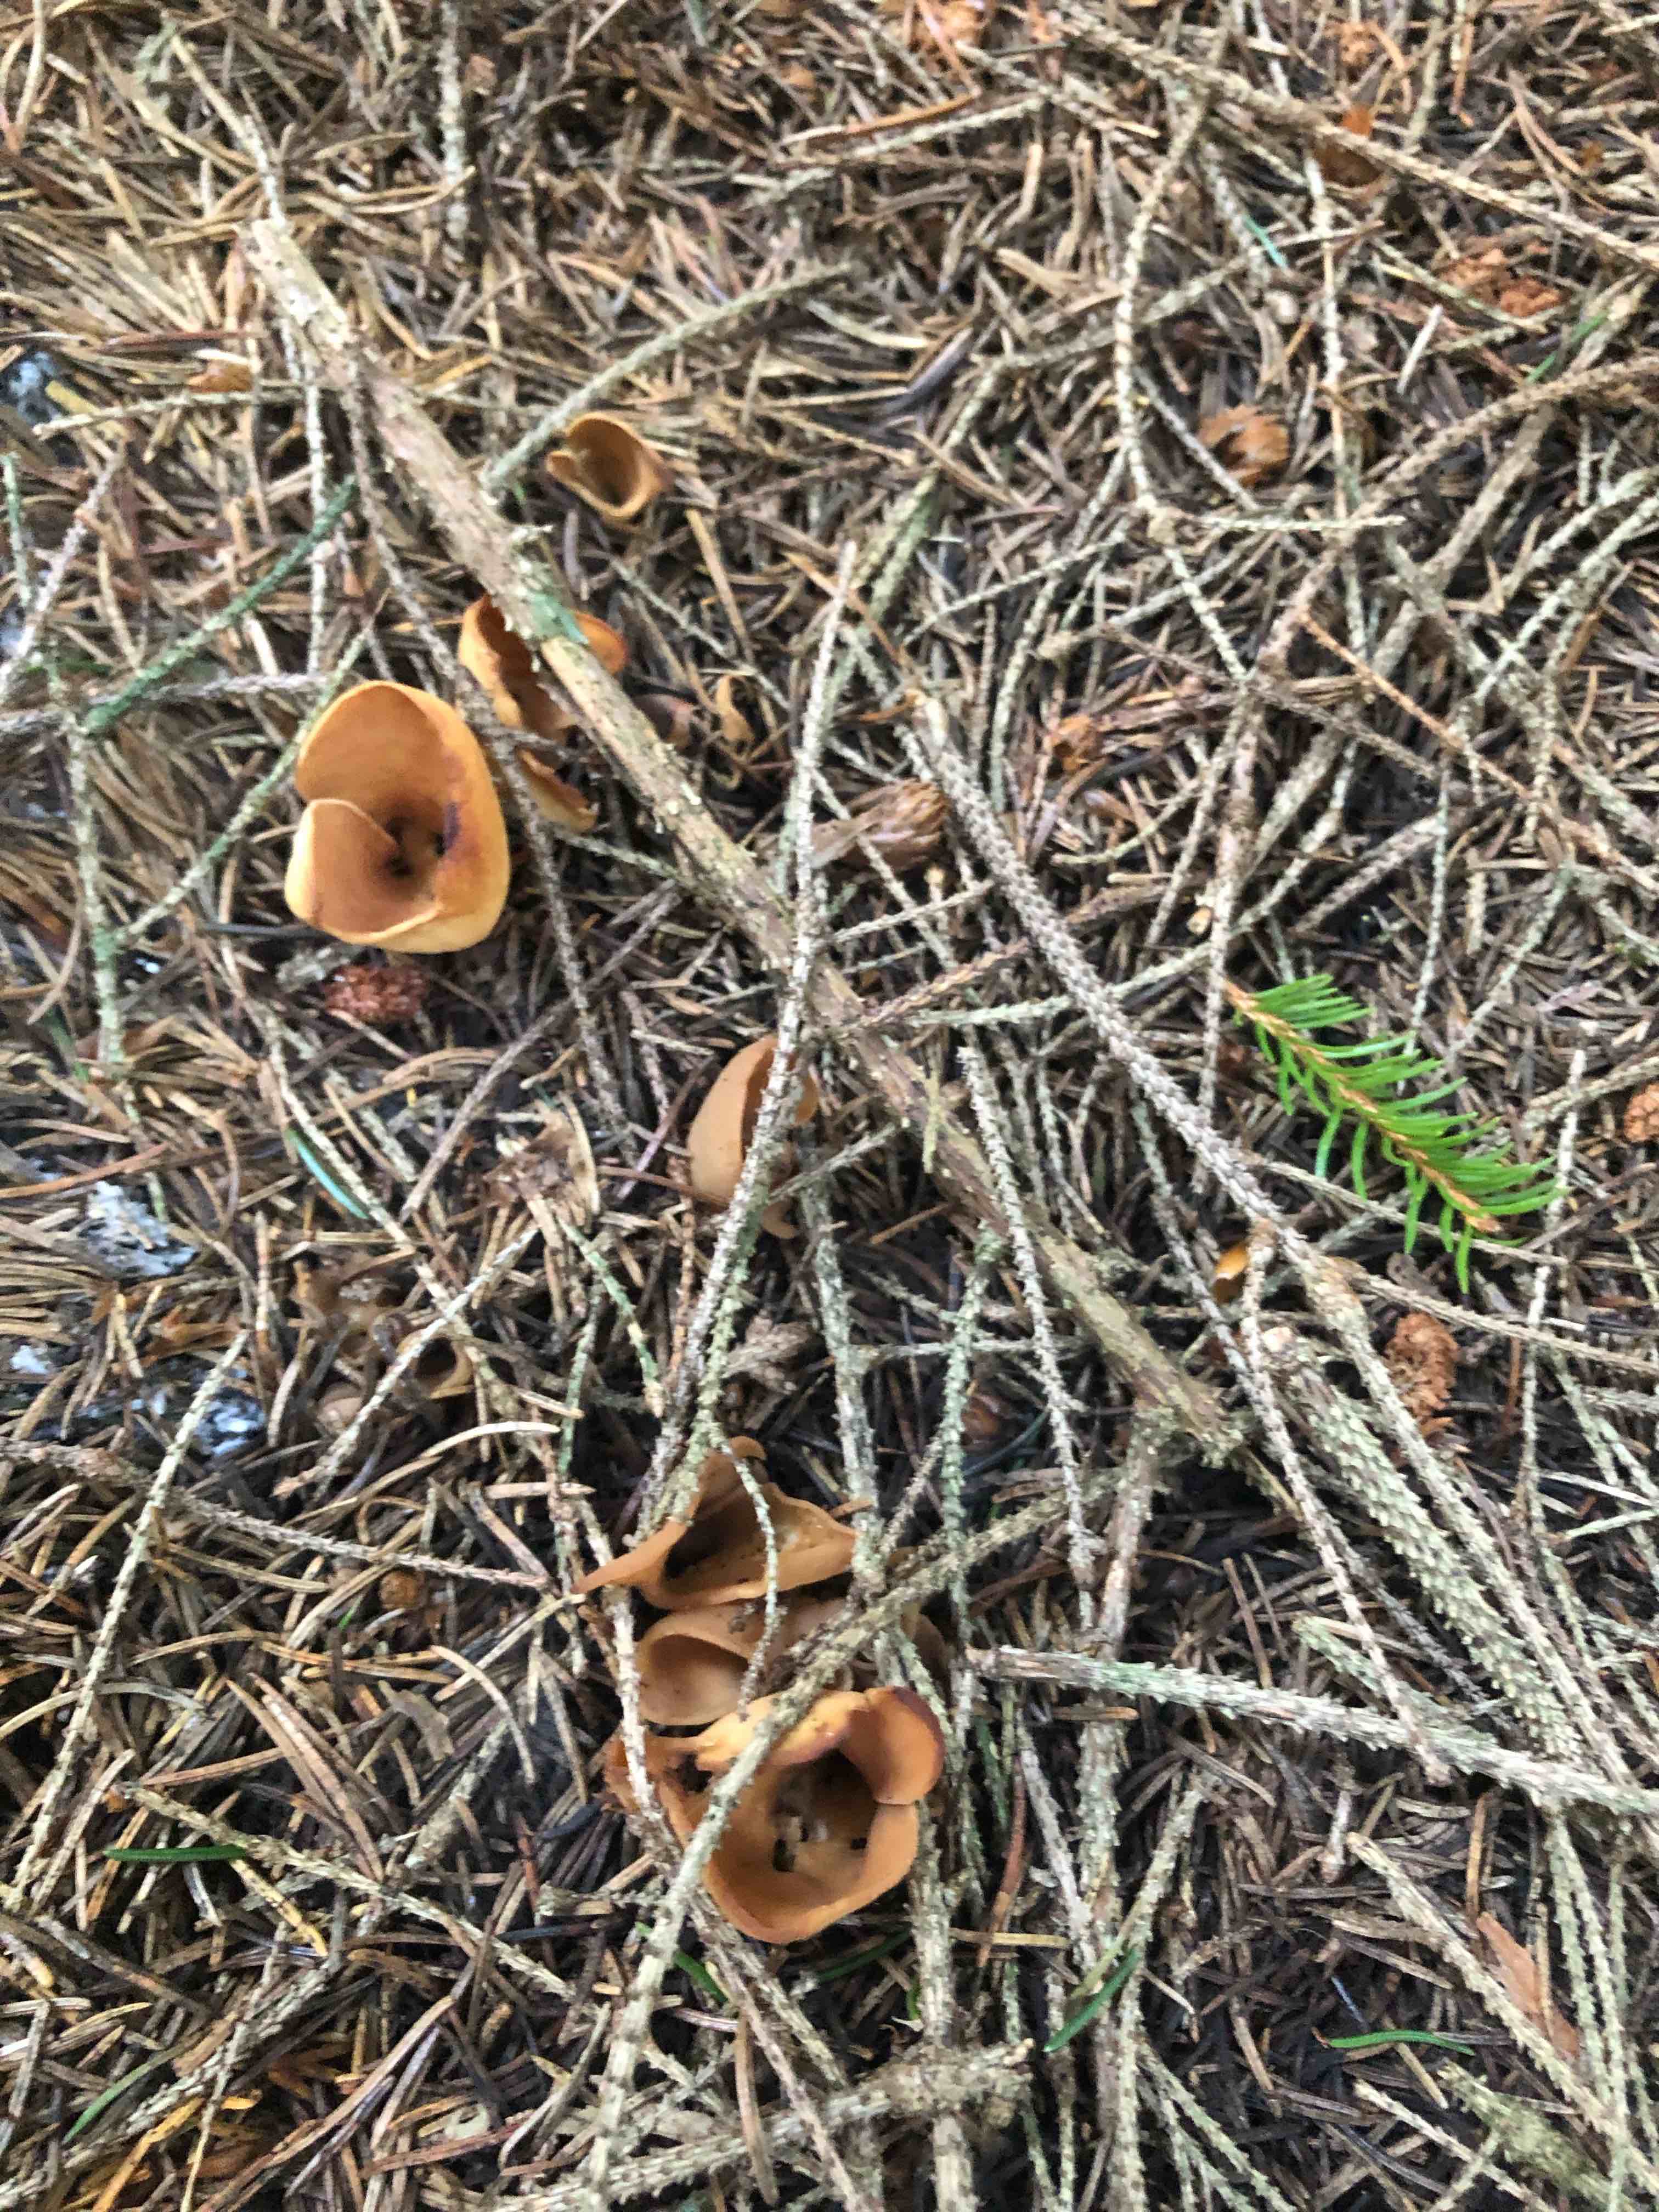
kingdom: Fungi
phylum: Ascomycota
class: Pezizomycetes
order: Pezizales
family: Otideaceae
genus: Otidea
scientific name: Otidea
